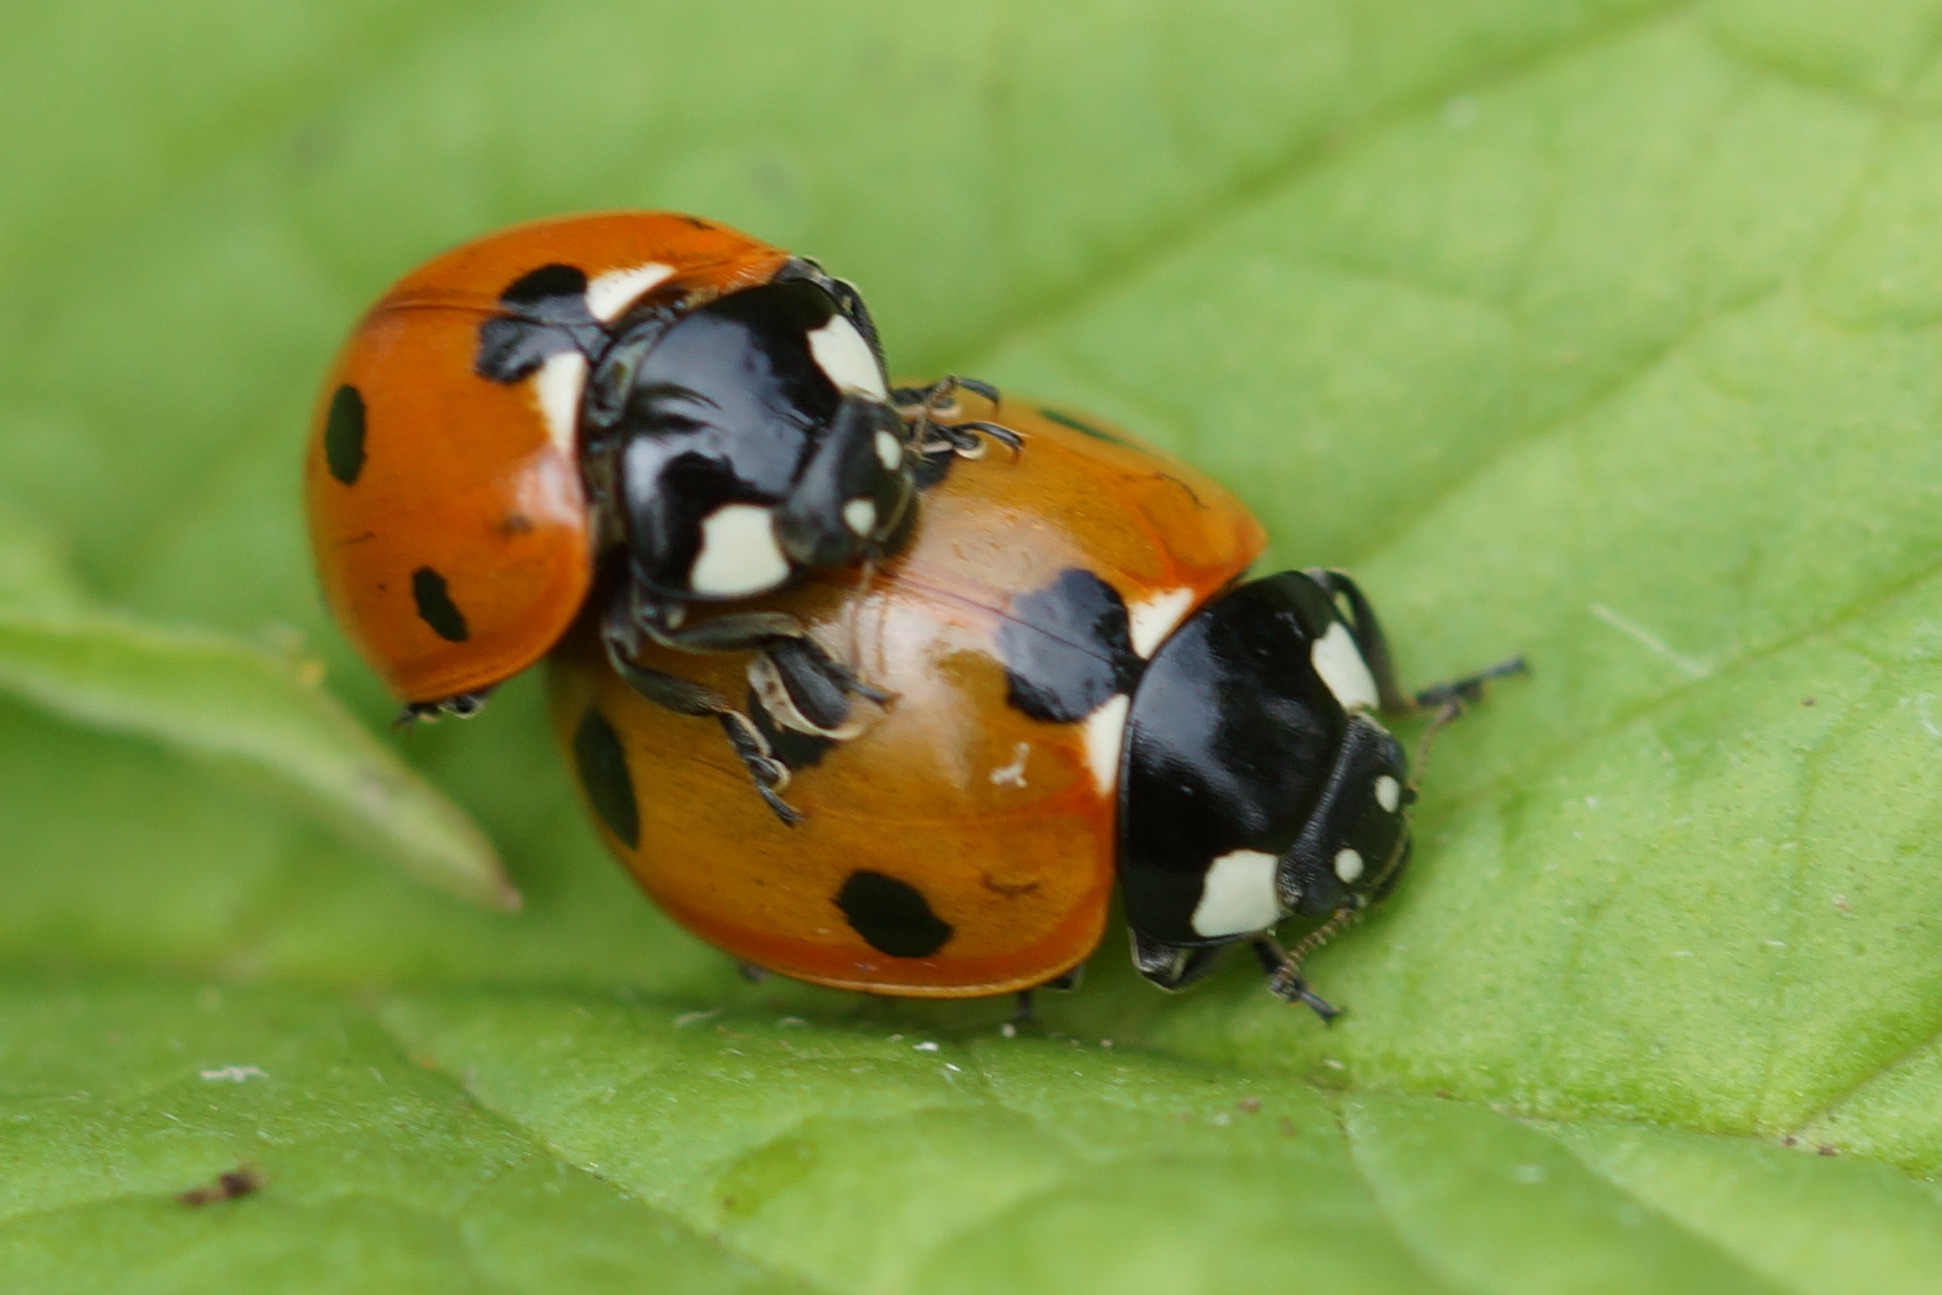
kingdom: Animalia
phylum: Arthropoda
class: Insecta
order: Coleoptera
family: Coccinellidae
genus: Coccinella
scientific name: Coccinella septempunctata
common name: Syvplettet mariehøne
